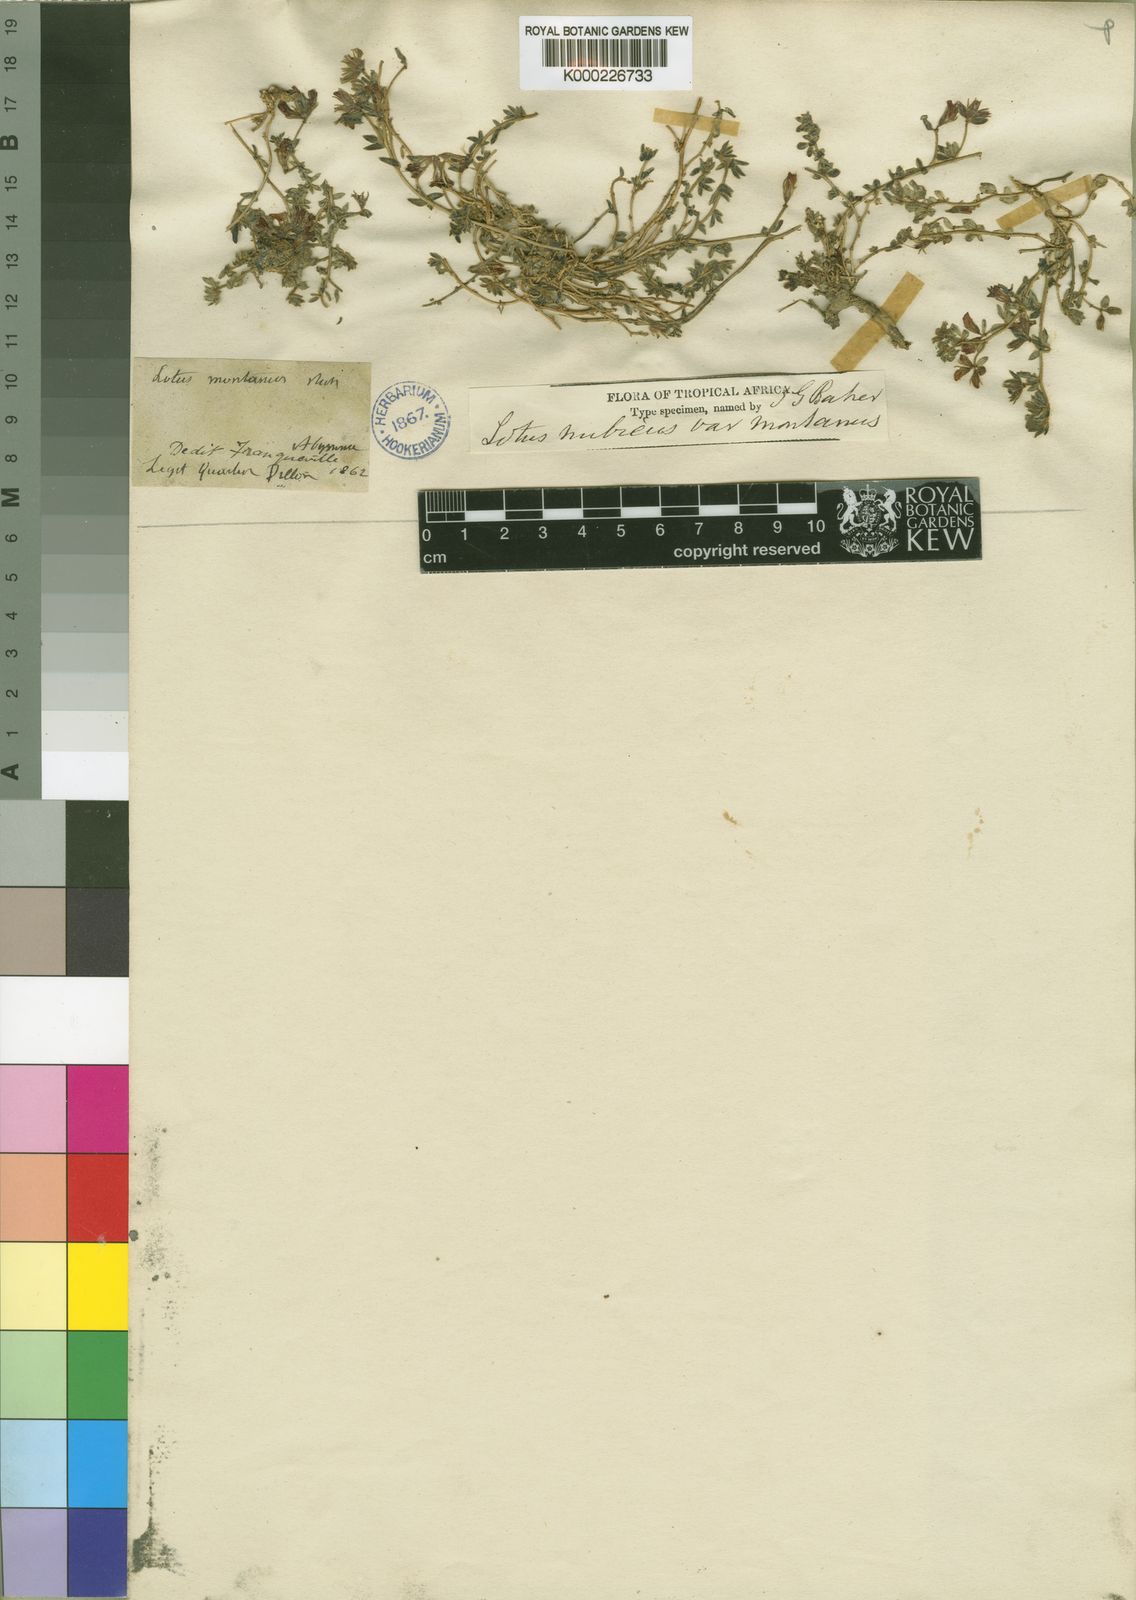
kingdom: Plantae
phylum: Tracheophyta
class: Magnoliopsida
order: Fabales
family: Fabaceae
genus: Lotus
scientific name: Lotus
